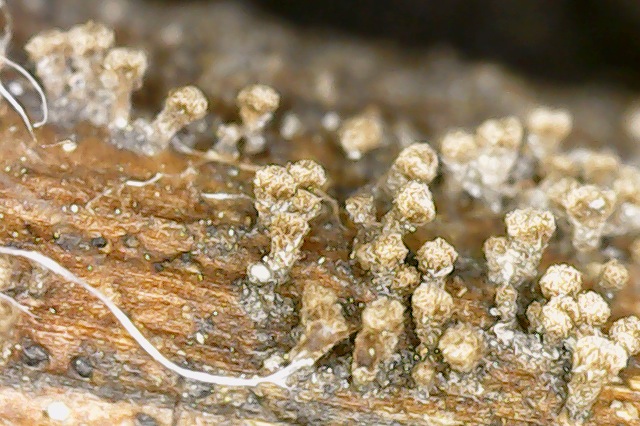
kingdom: Fungi
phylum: Ascomycota
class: Leotiomycetes
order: Helotiales
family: Lachnaceae
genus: Brunnipila
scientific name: Brunnipila clandestina
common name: hindbær-frynseskive
